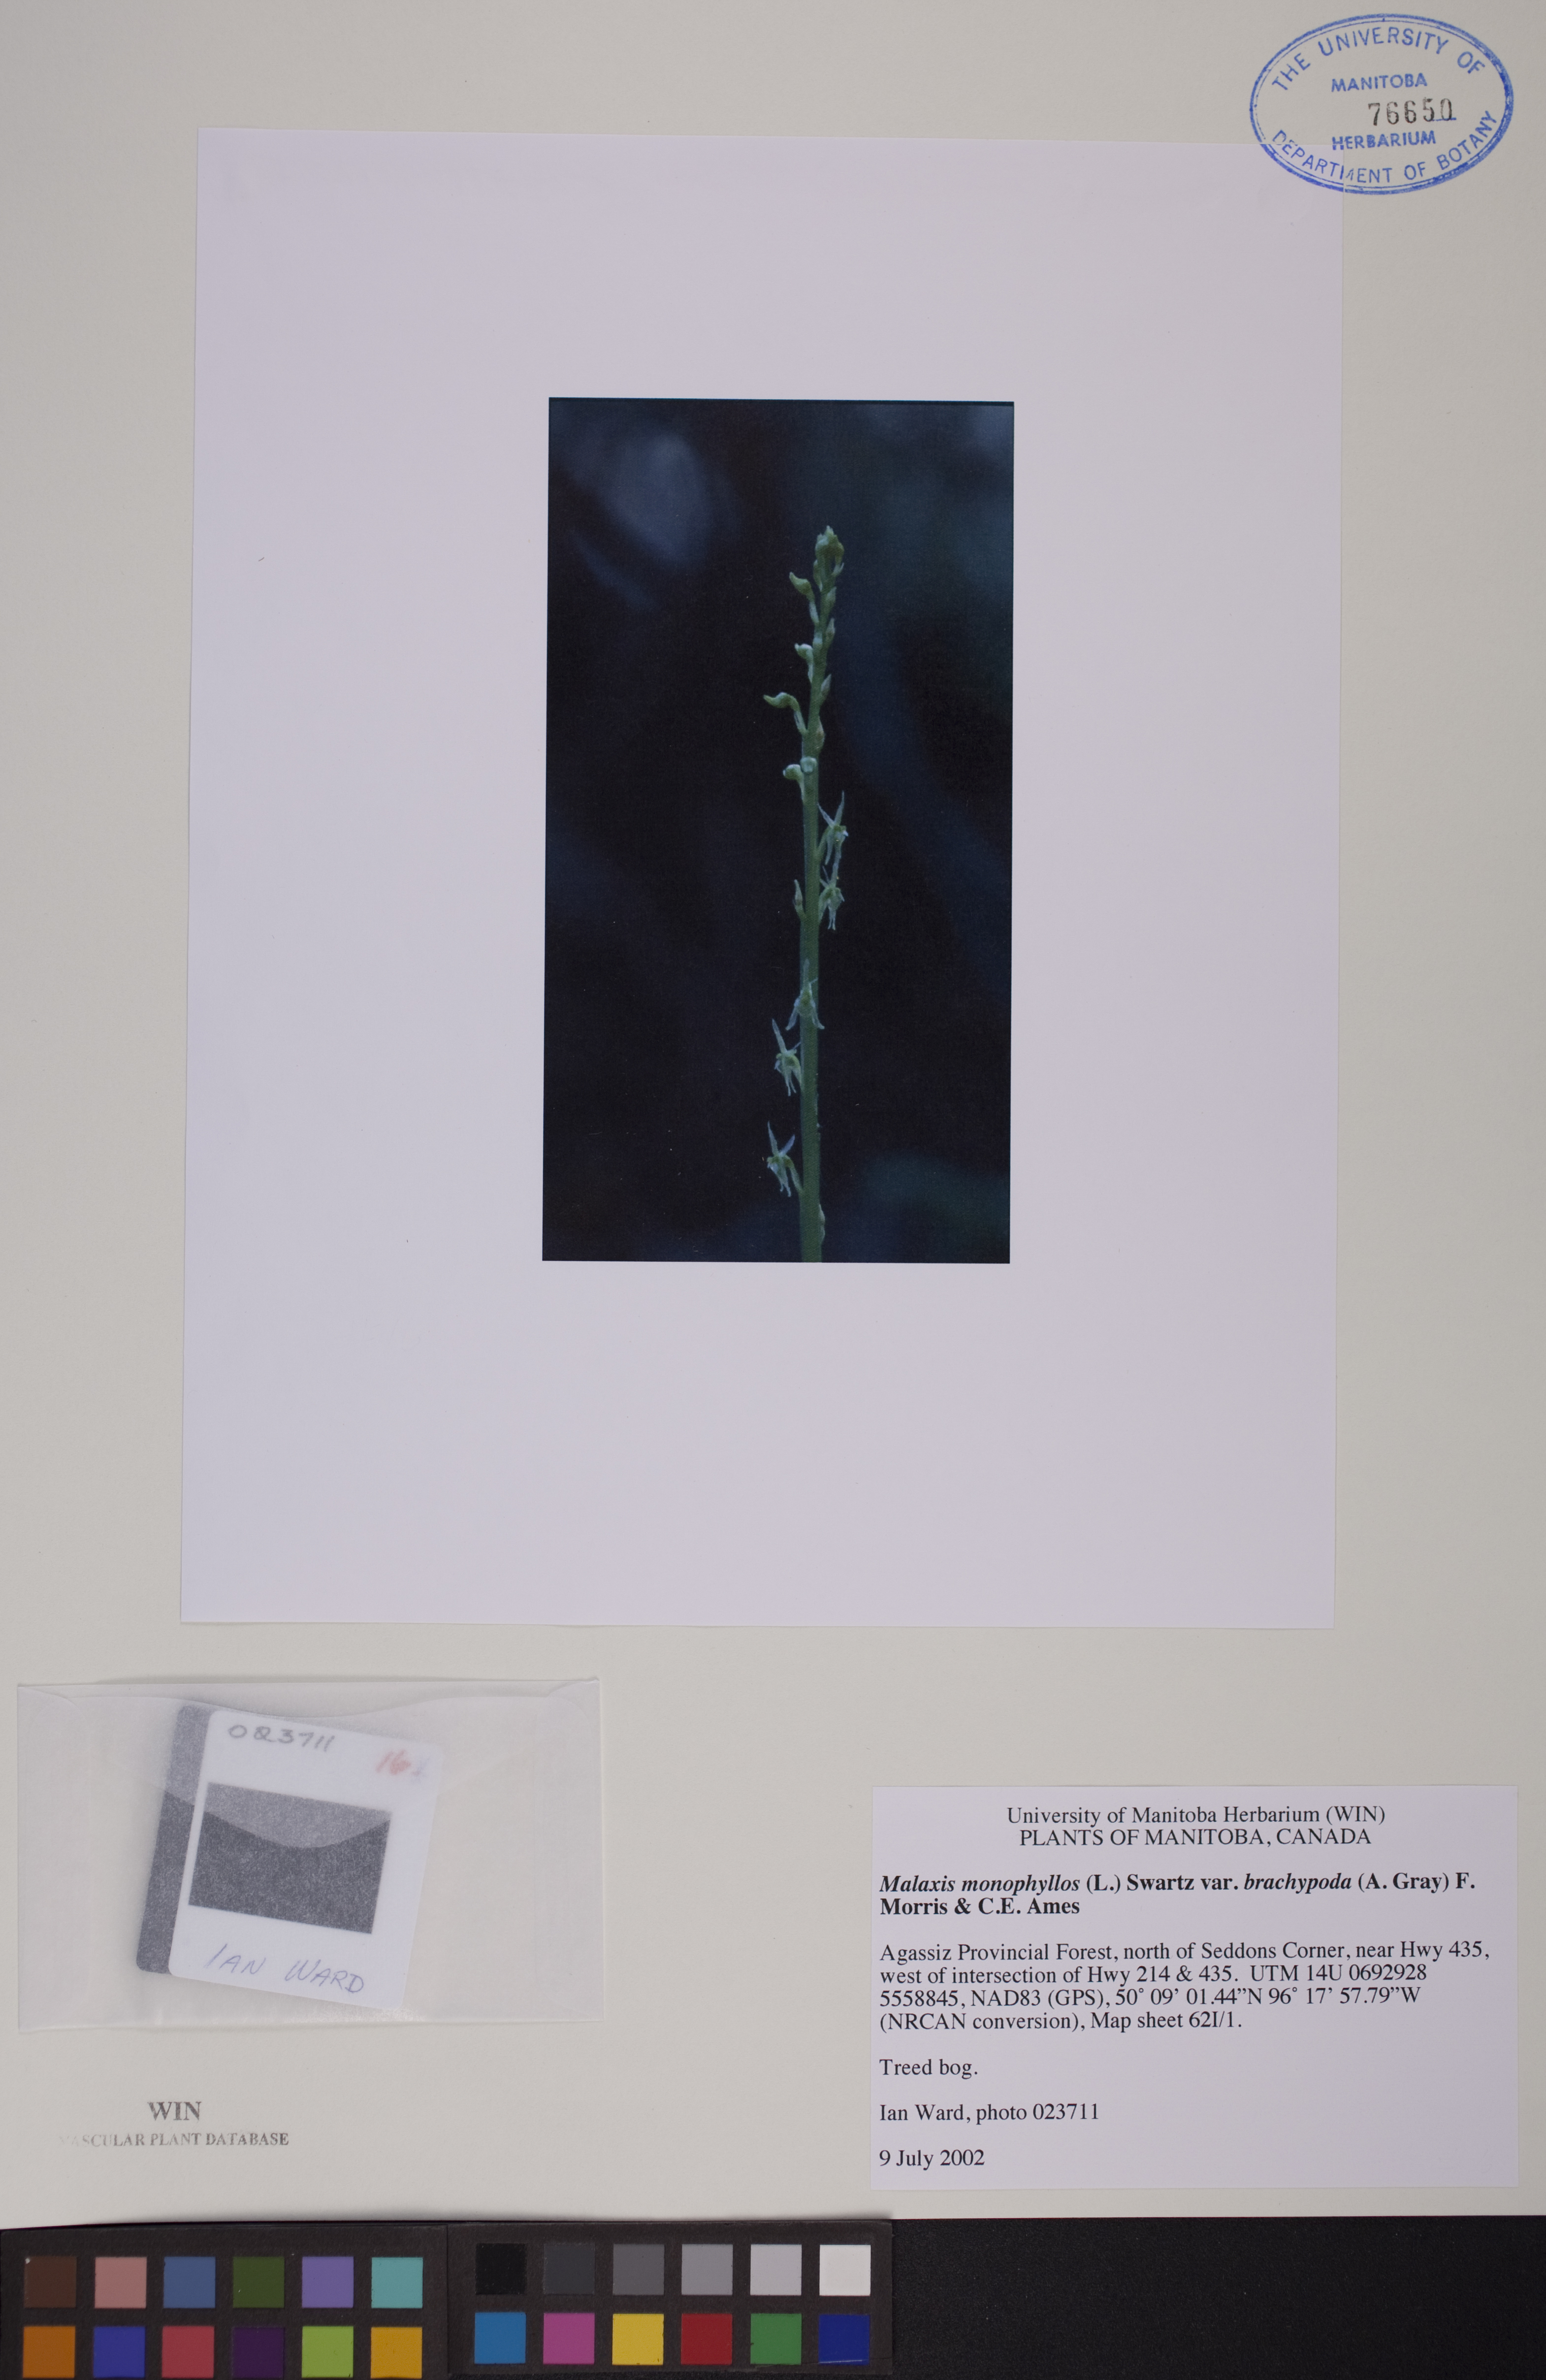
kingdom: Plantae
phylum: Tracheophyta
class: Liliopsida
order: Asparagales
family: Orchidaceae
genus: Malaxis
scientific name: Malaxis monophyllos
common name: White adder's-mouth
